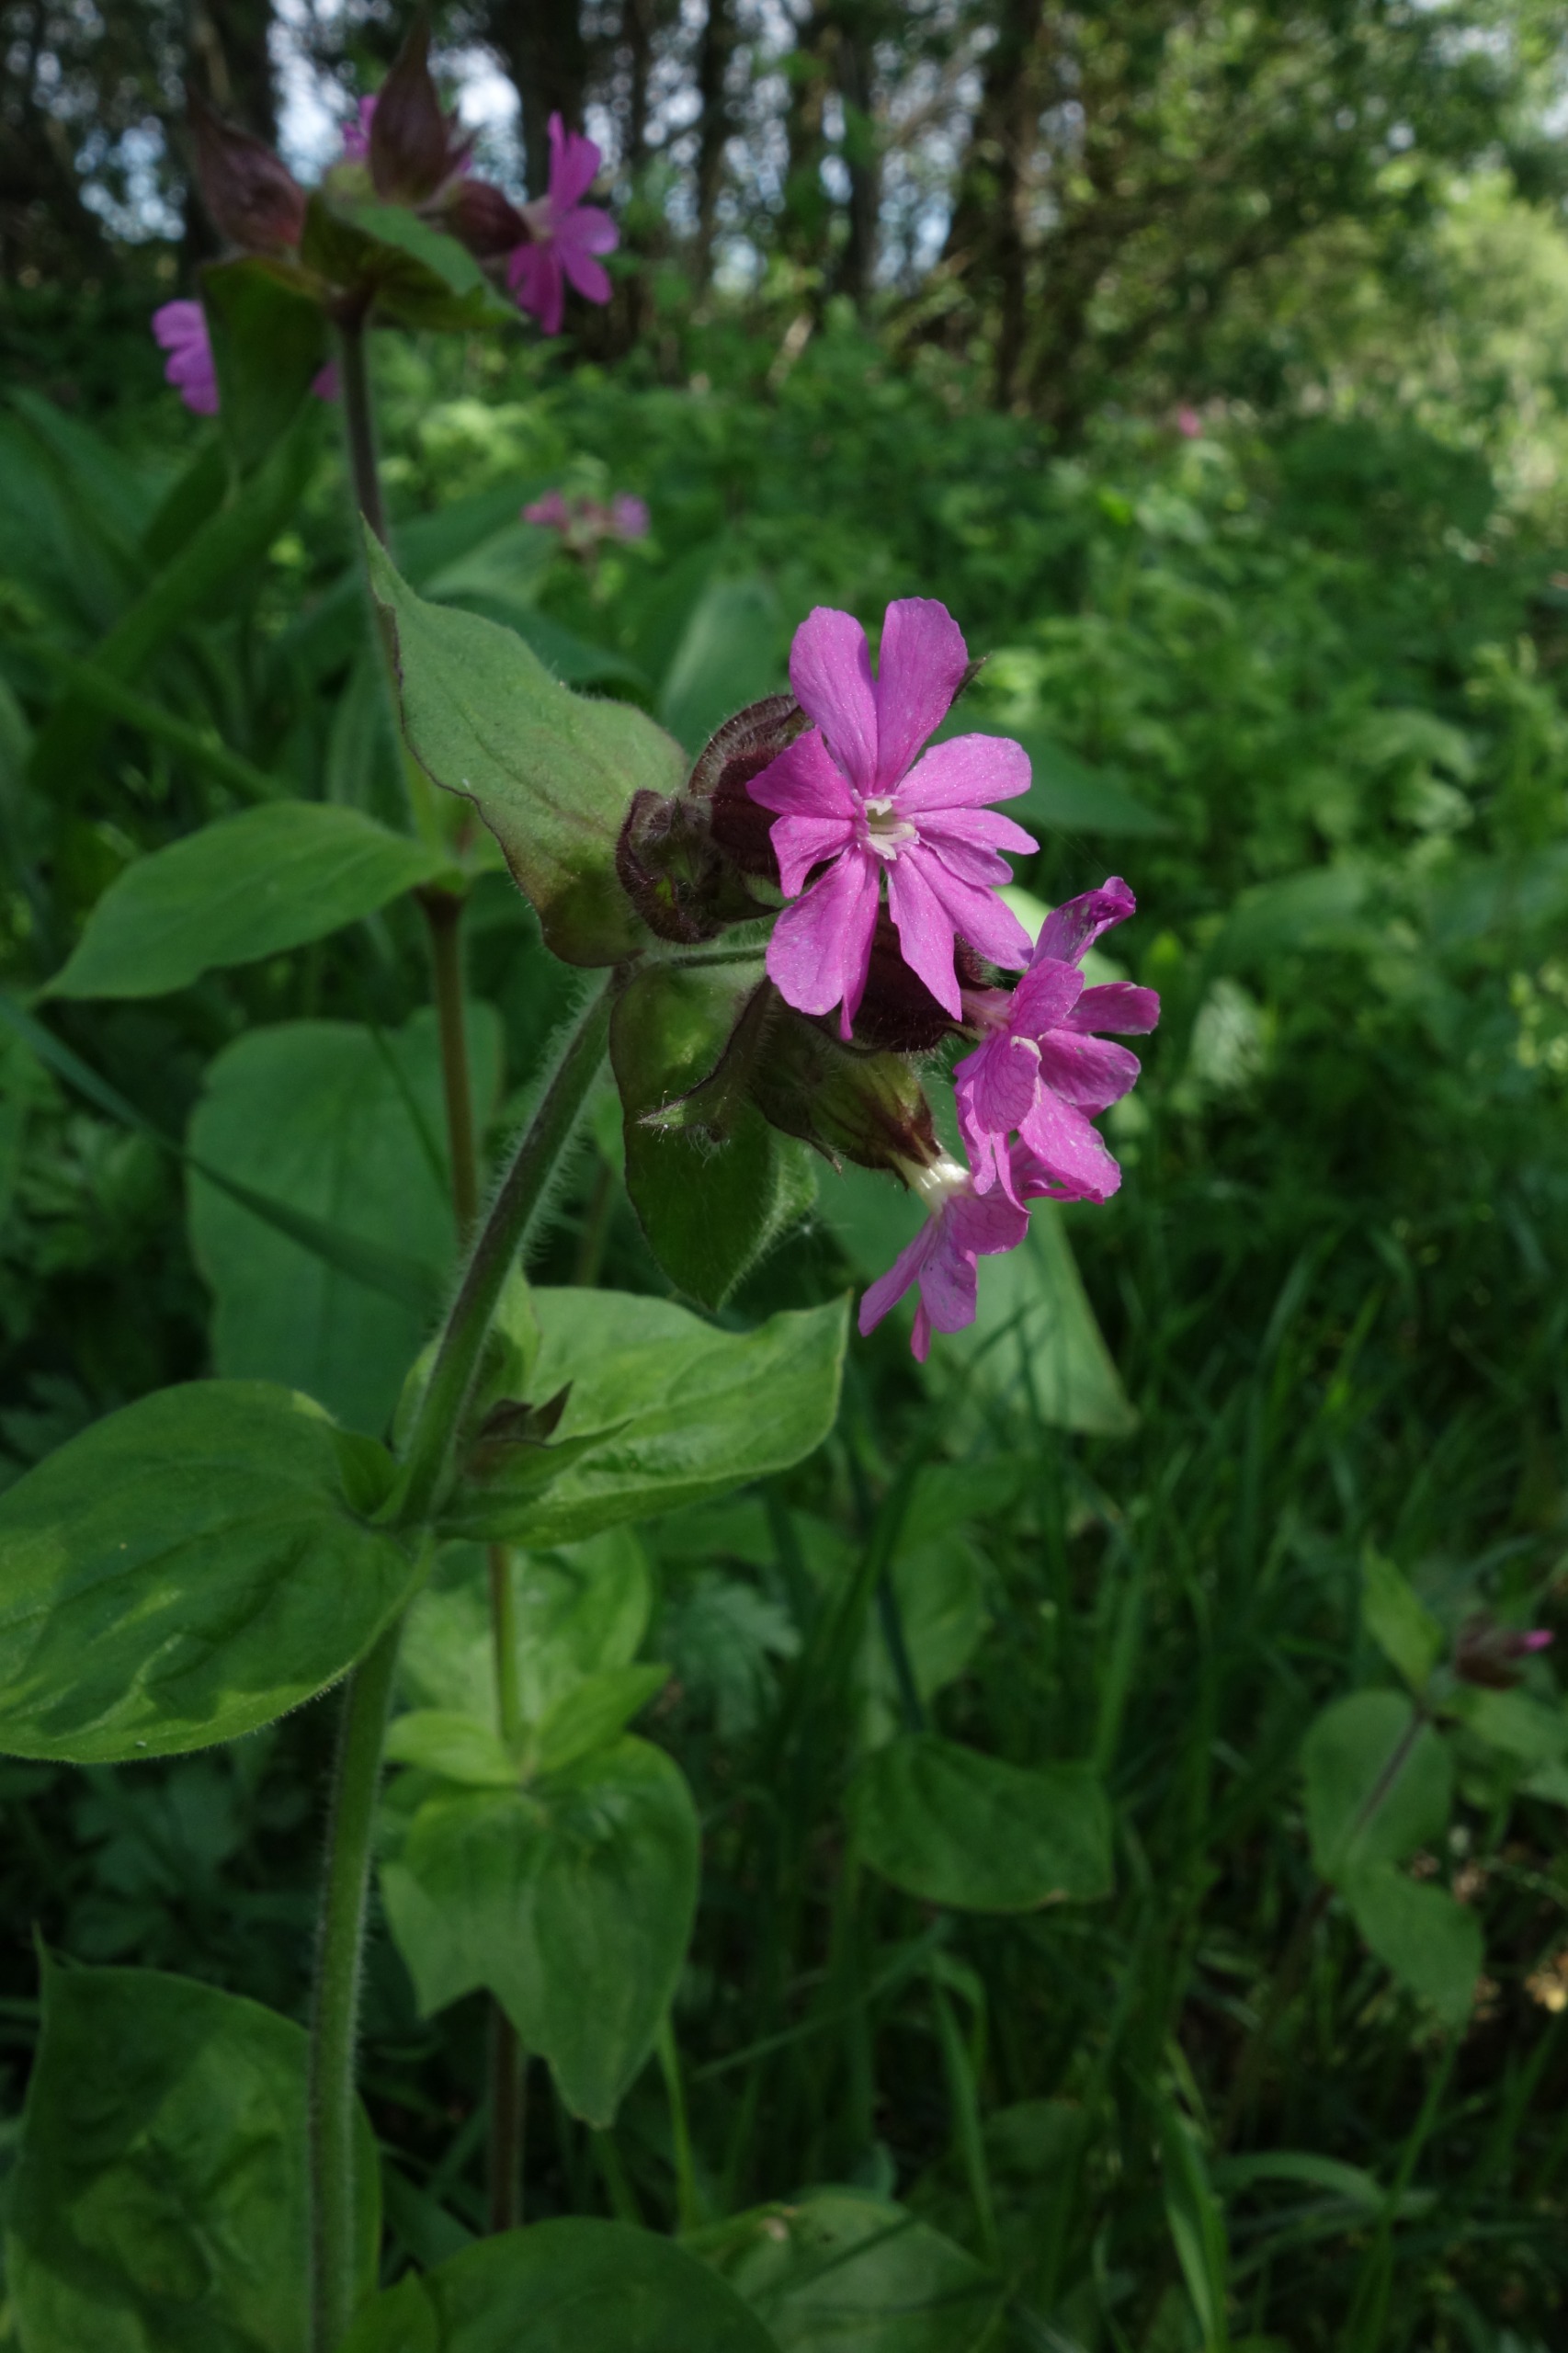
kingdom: Plantae
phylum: Tracheophyta
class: Magnoliopsida
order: Caryophyllales
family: Caryophyllaceae
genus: Silene
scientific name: Silene dioica
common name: Dagpragtstjerne
